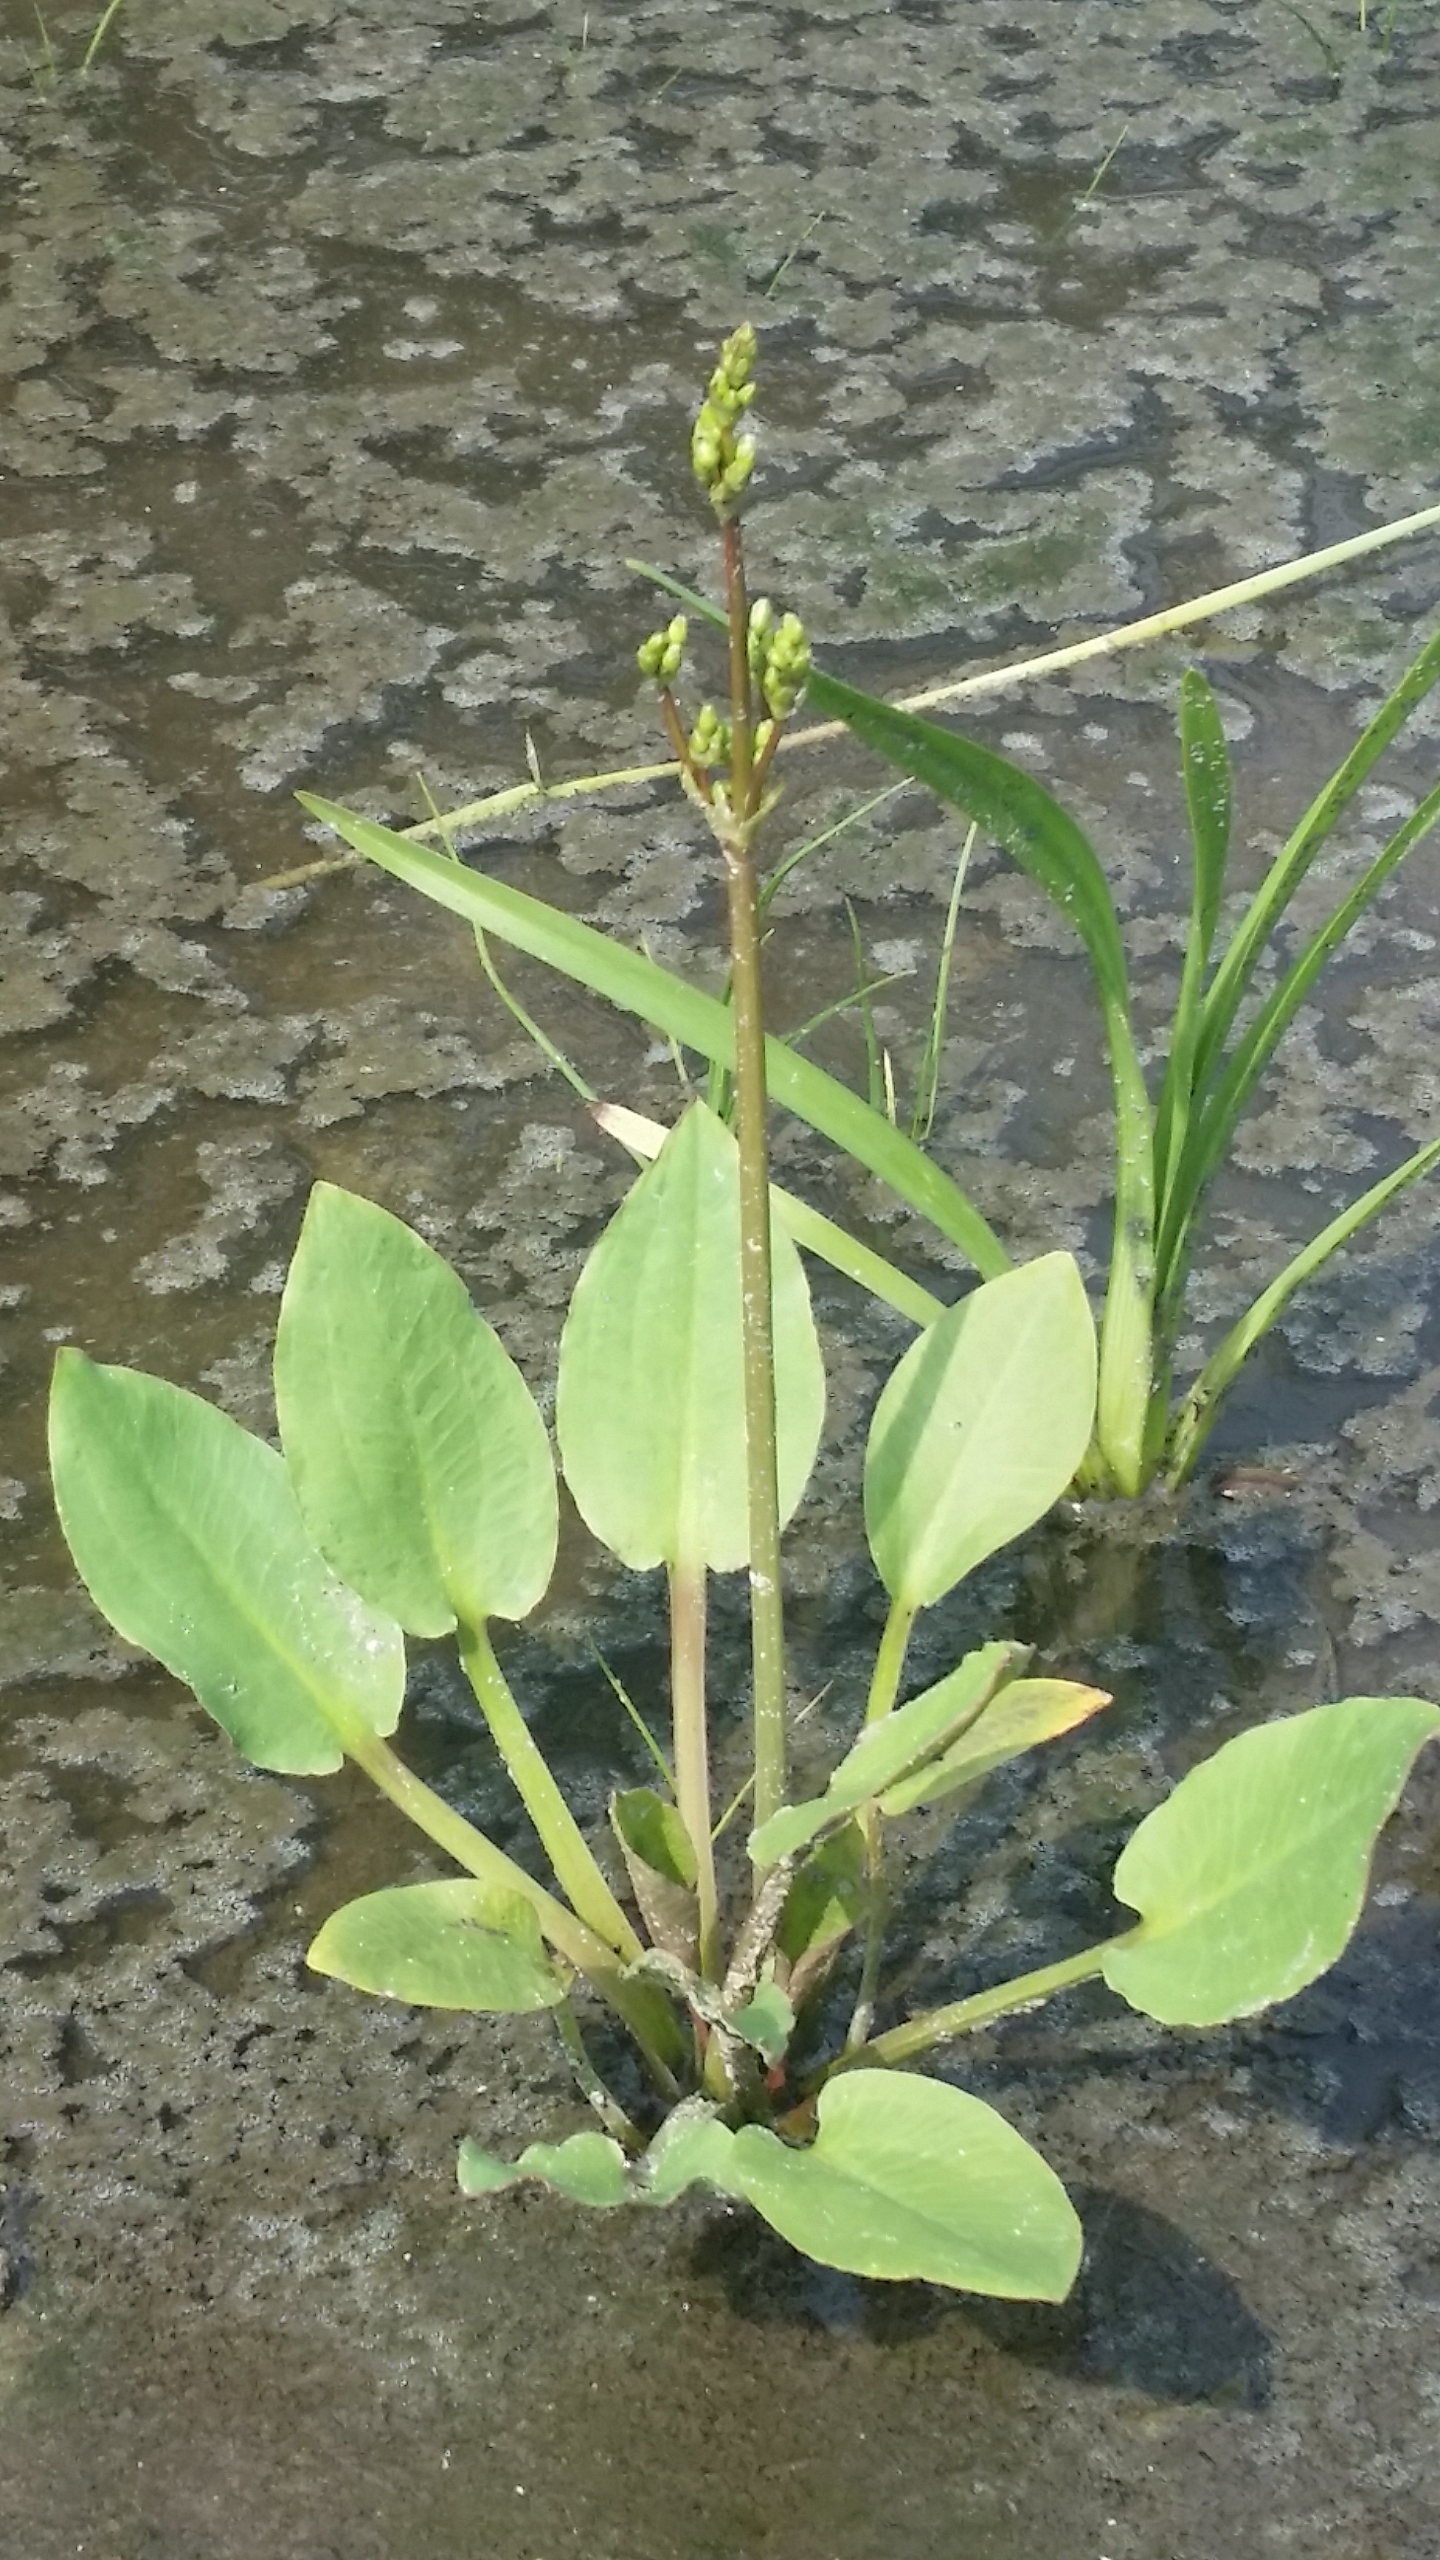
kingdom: Plantae
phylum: Tracheophyta
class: Liliopsida
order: Alismatales
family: Alismataceae
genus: Alisma
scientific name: Alisma plantago-aquatica
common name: Vejbred-skeblad
